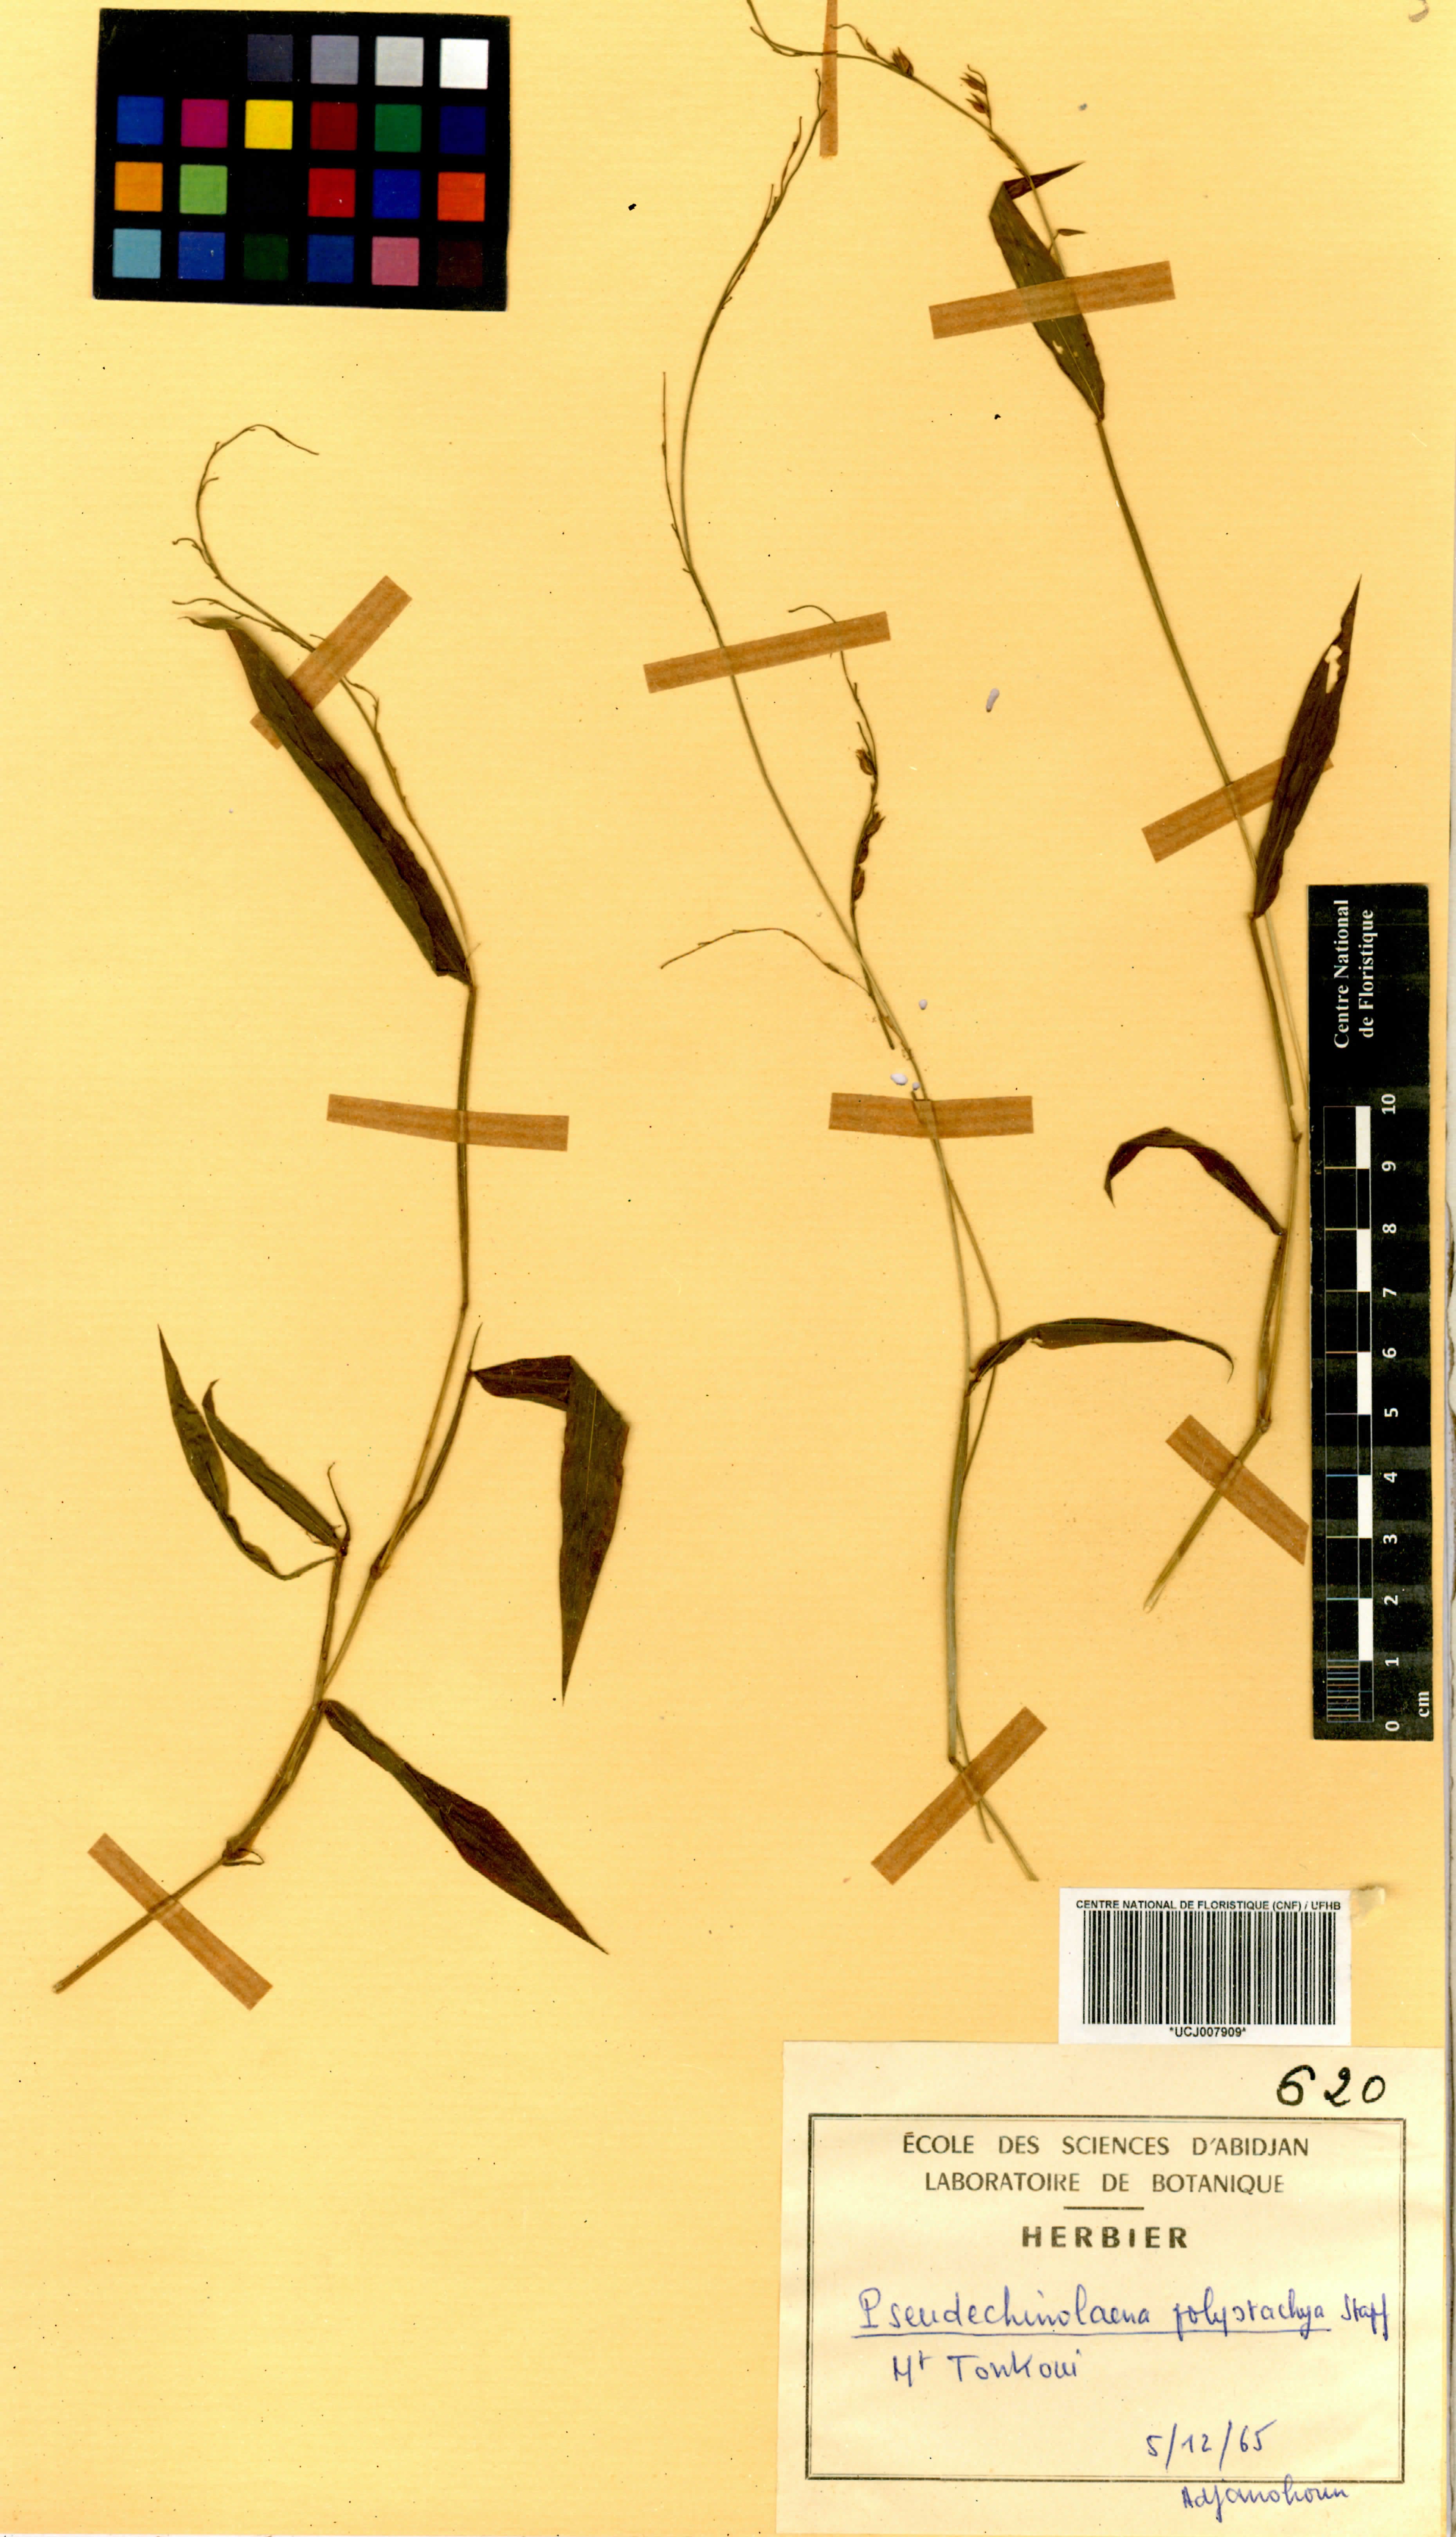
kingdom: Plantae
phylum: Tracheophyta
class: Liliopsida
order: Poales
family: Poaceae
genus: Pseudechinolaena
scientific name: Pseudechinolaena polystachya
